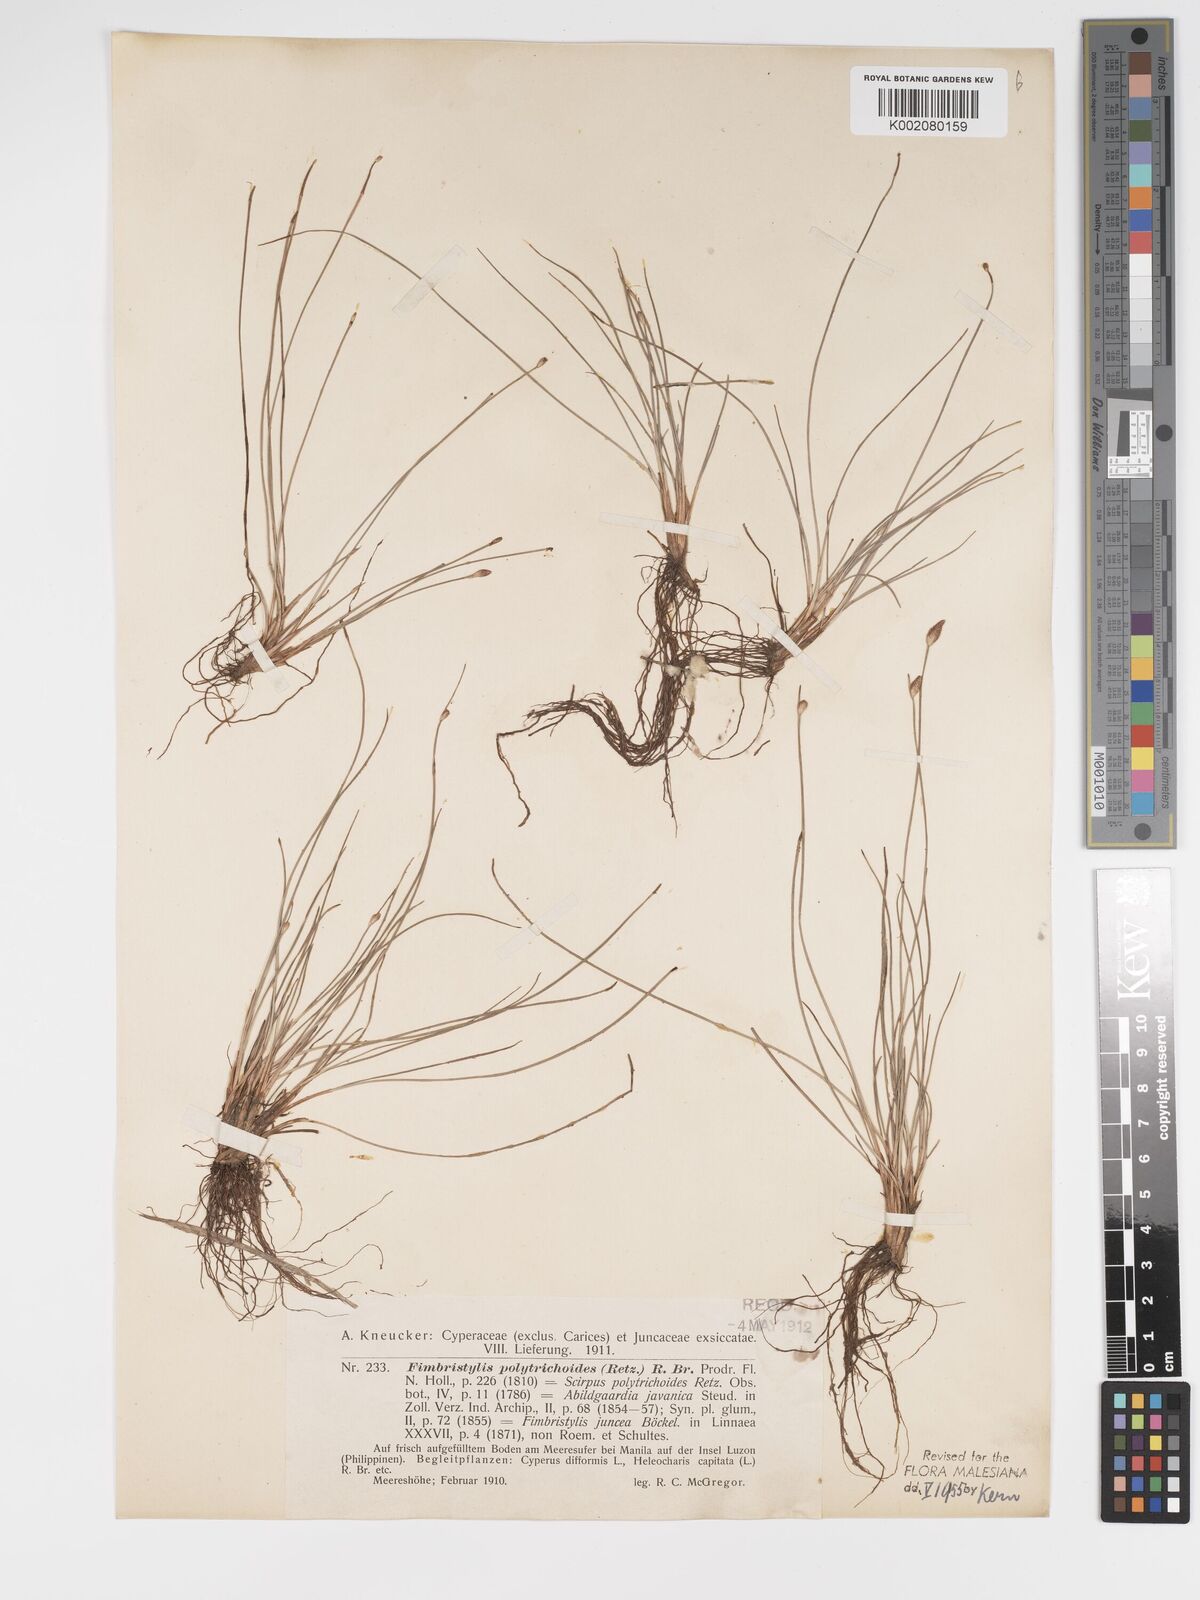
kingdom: Plantae
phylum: Tracheophyta
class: Liliopsida
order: Poales
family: Cyperaceae
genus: Fimbristylis
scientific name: Fimbristylis polytrichoides
